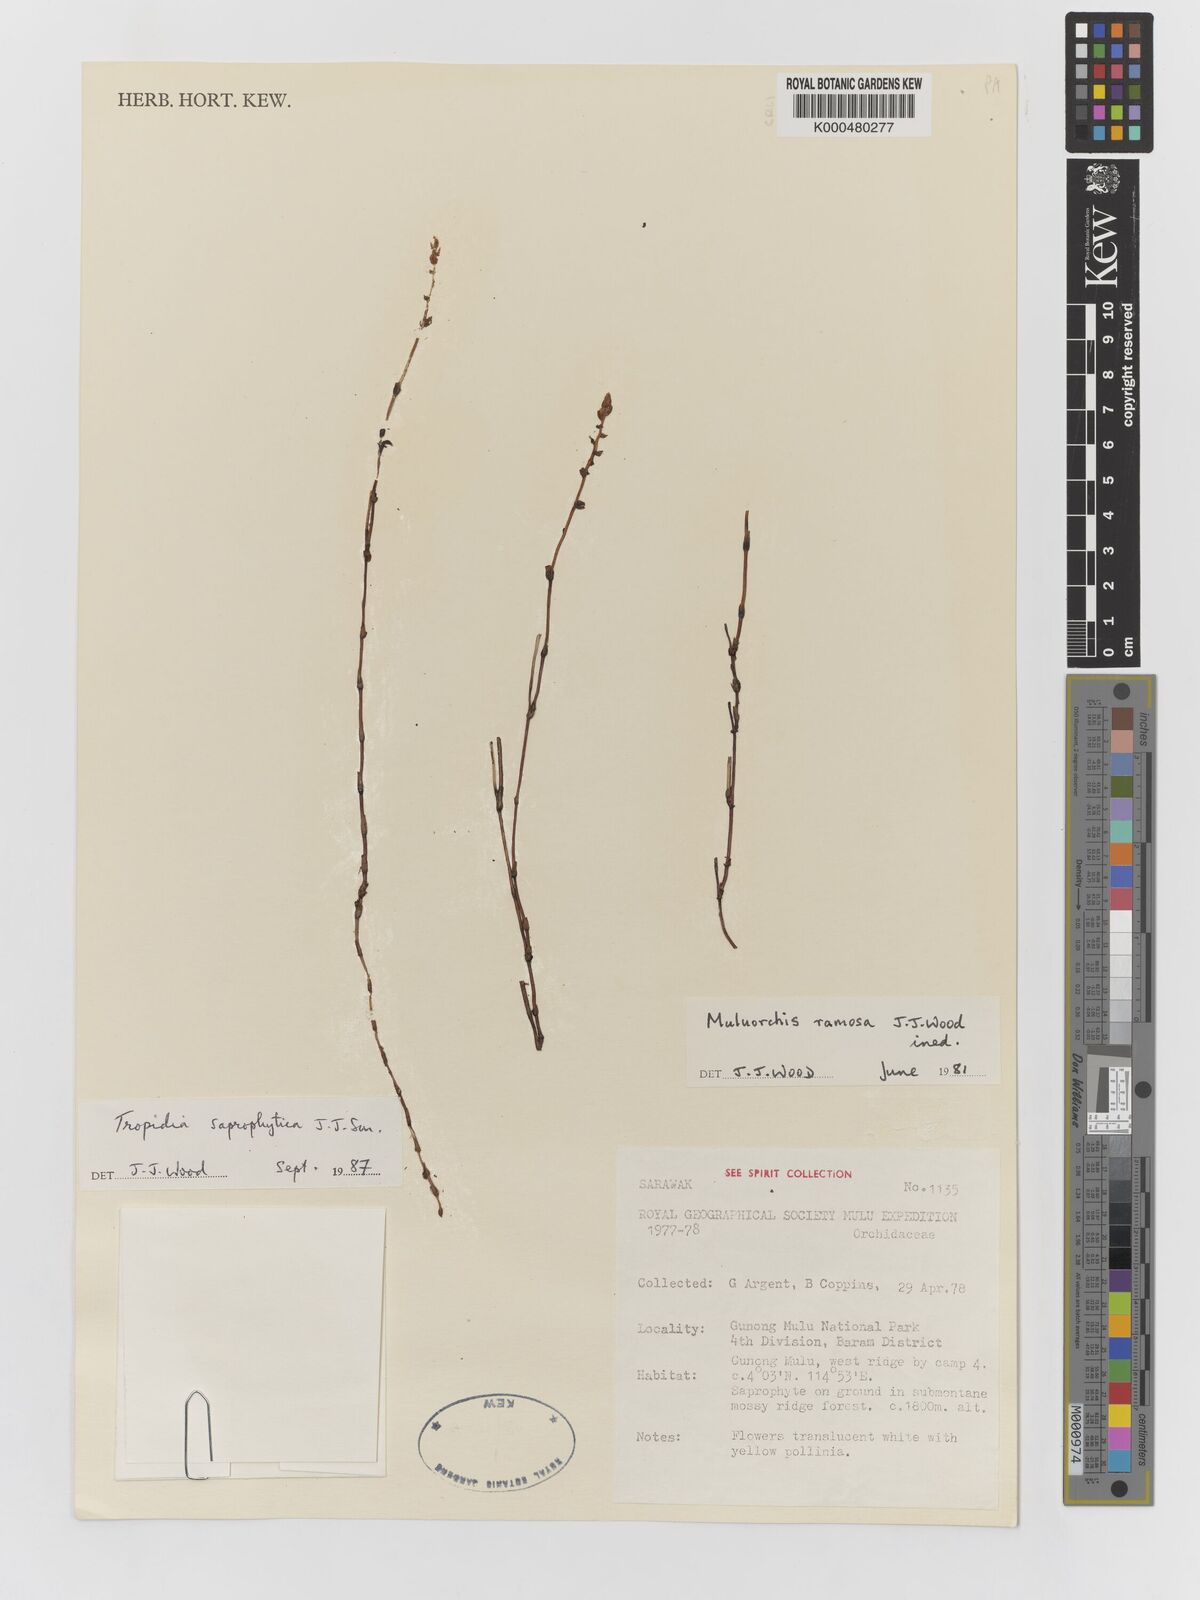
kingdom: Plantae
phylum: Tracheophyta
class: Liliopsida
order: Asparagales
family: Orchidaceae
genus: Tropidia
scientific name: Tropidia saprophytica
